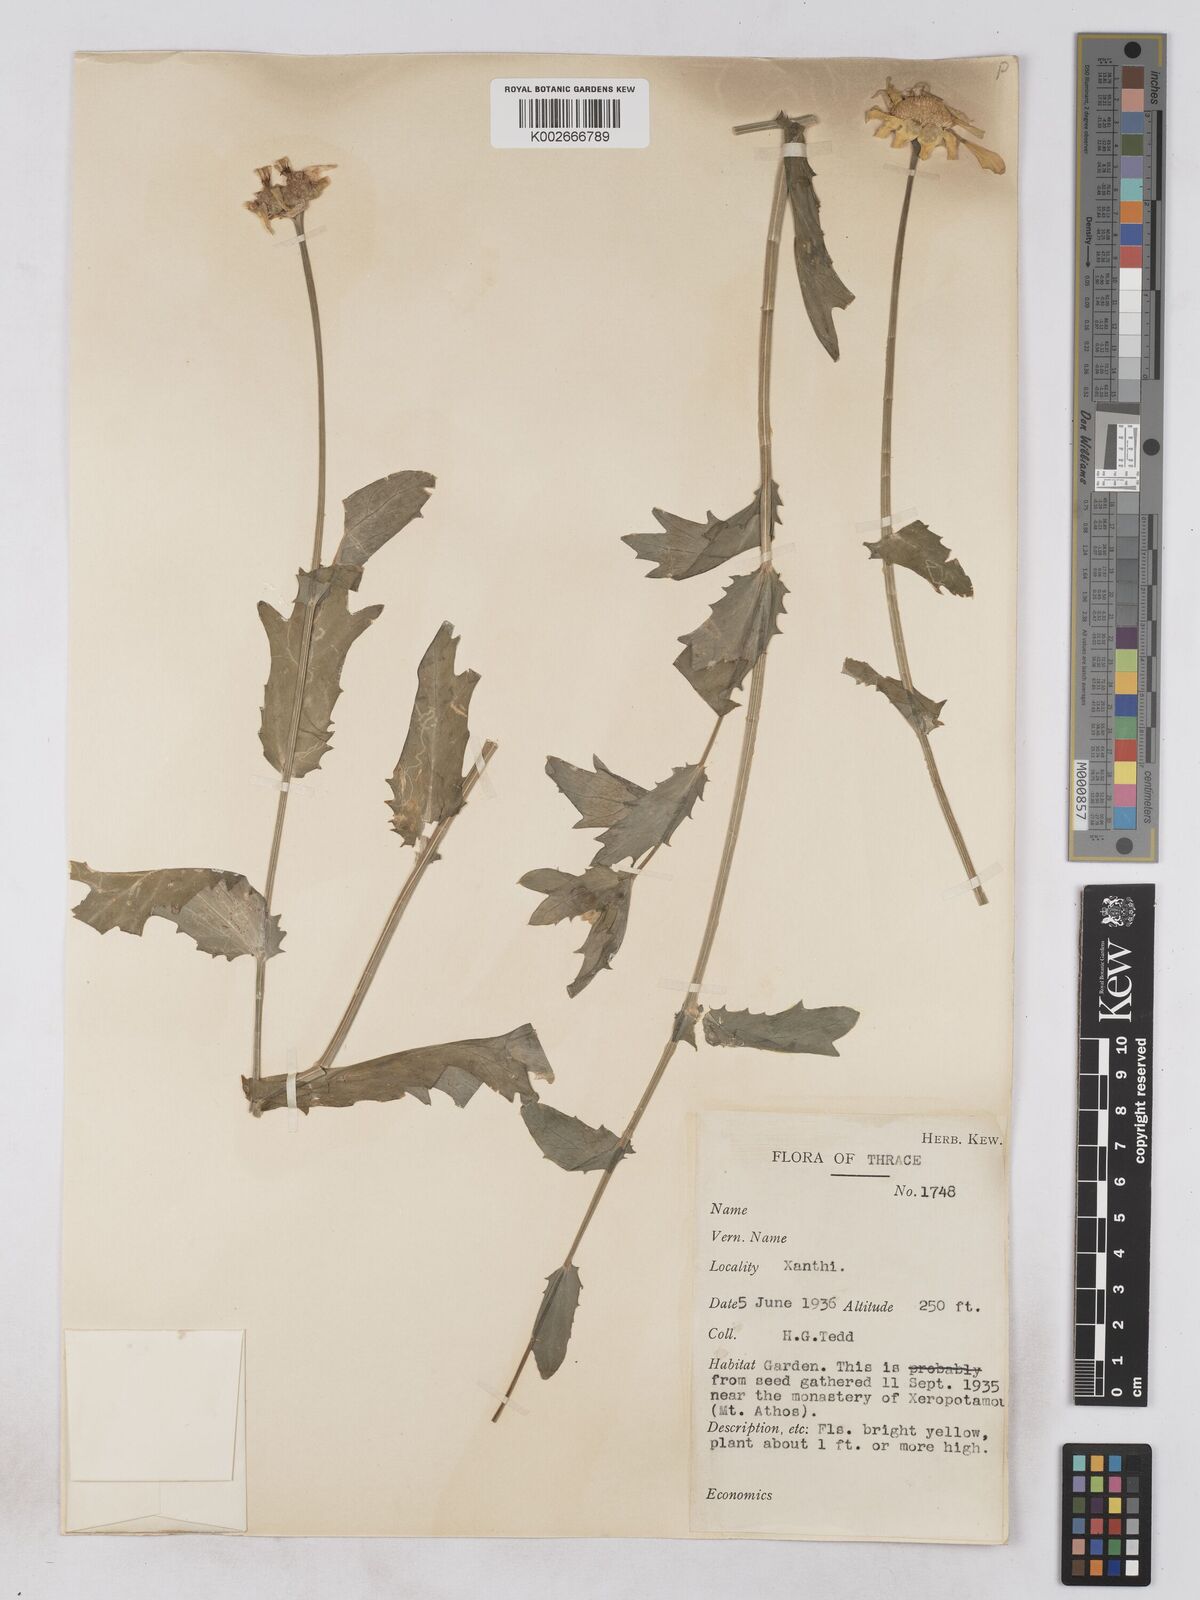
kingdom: Plantae
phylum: Tracheophyta
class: Magnoliopsida
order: Asterales
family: Asteraceae
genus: Glebionis
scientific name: Glebionis segetum
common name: Corndaisy
